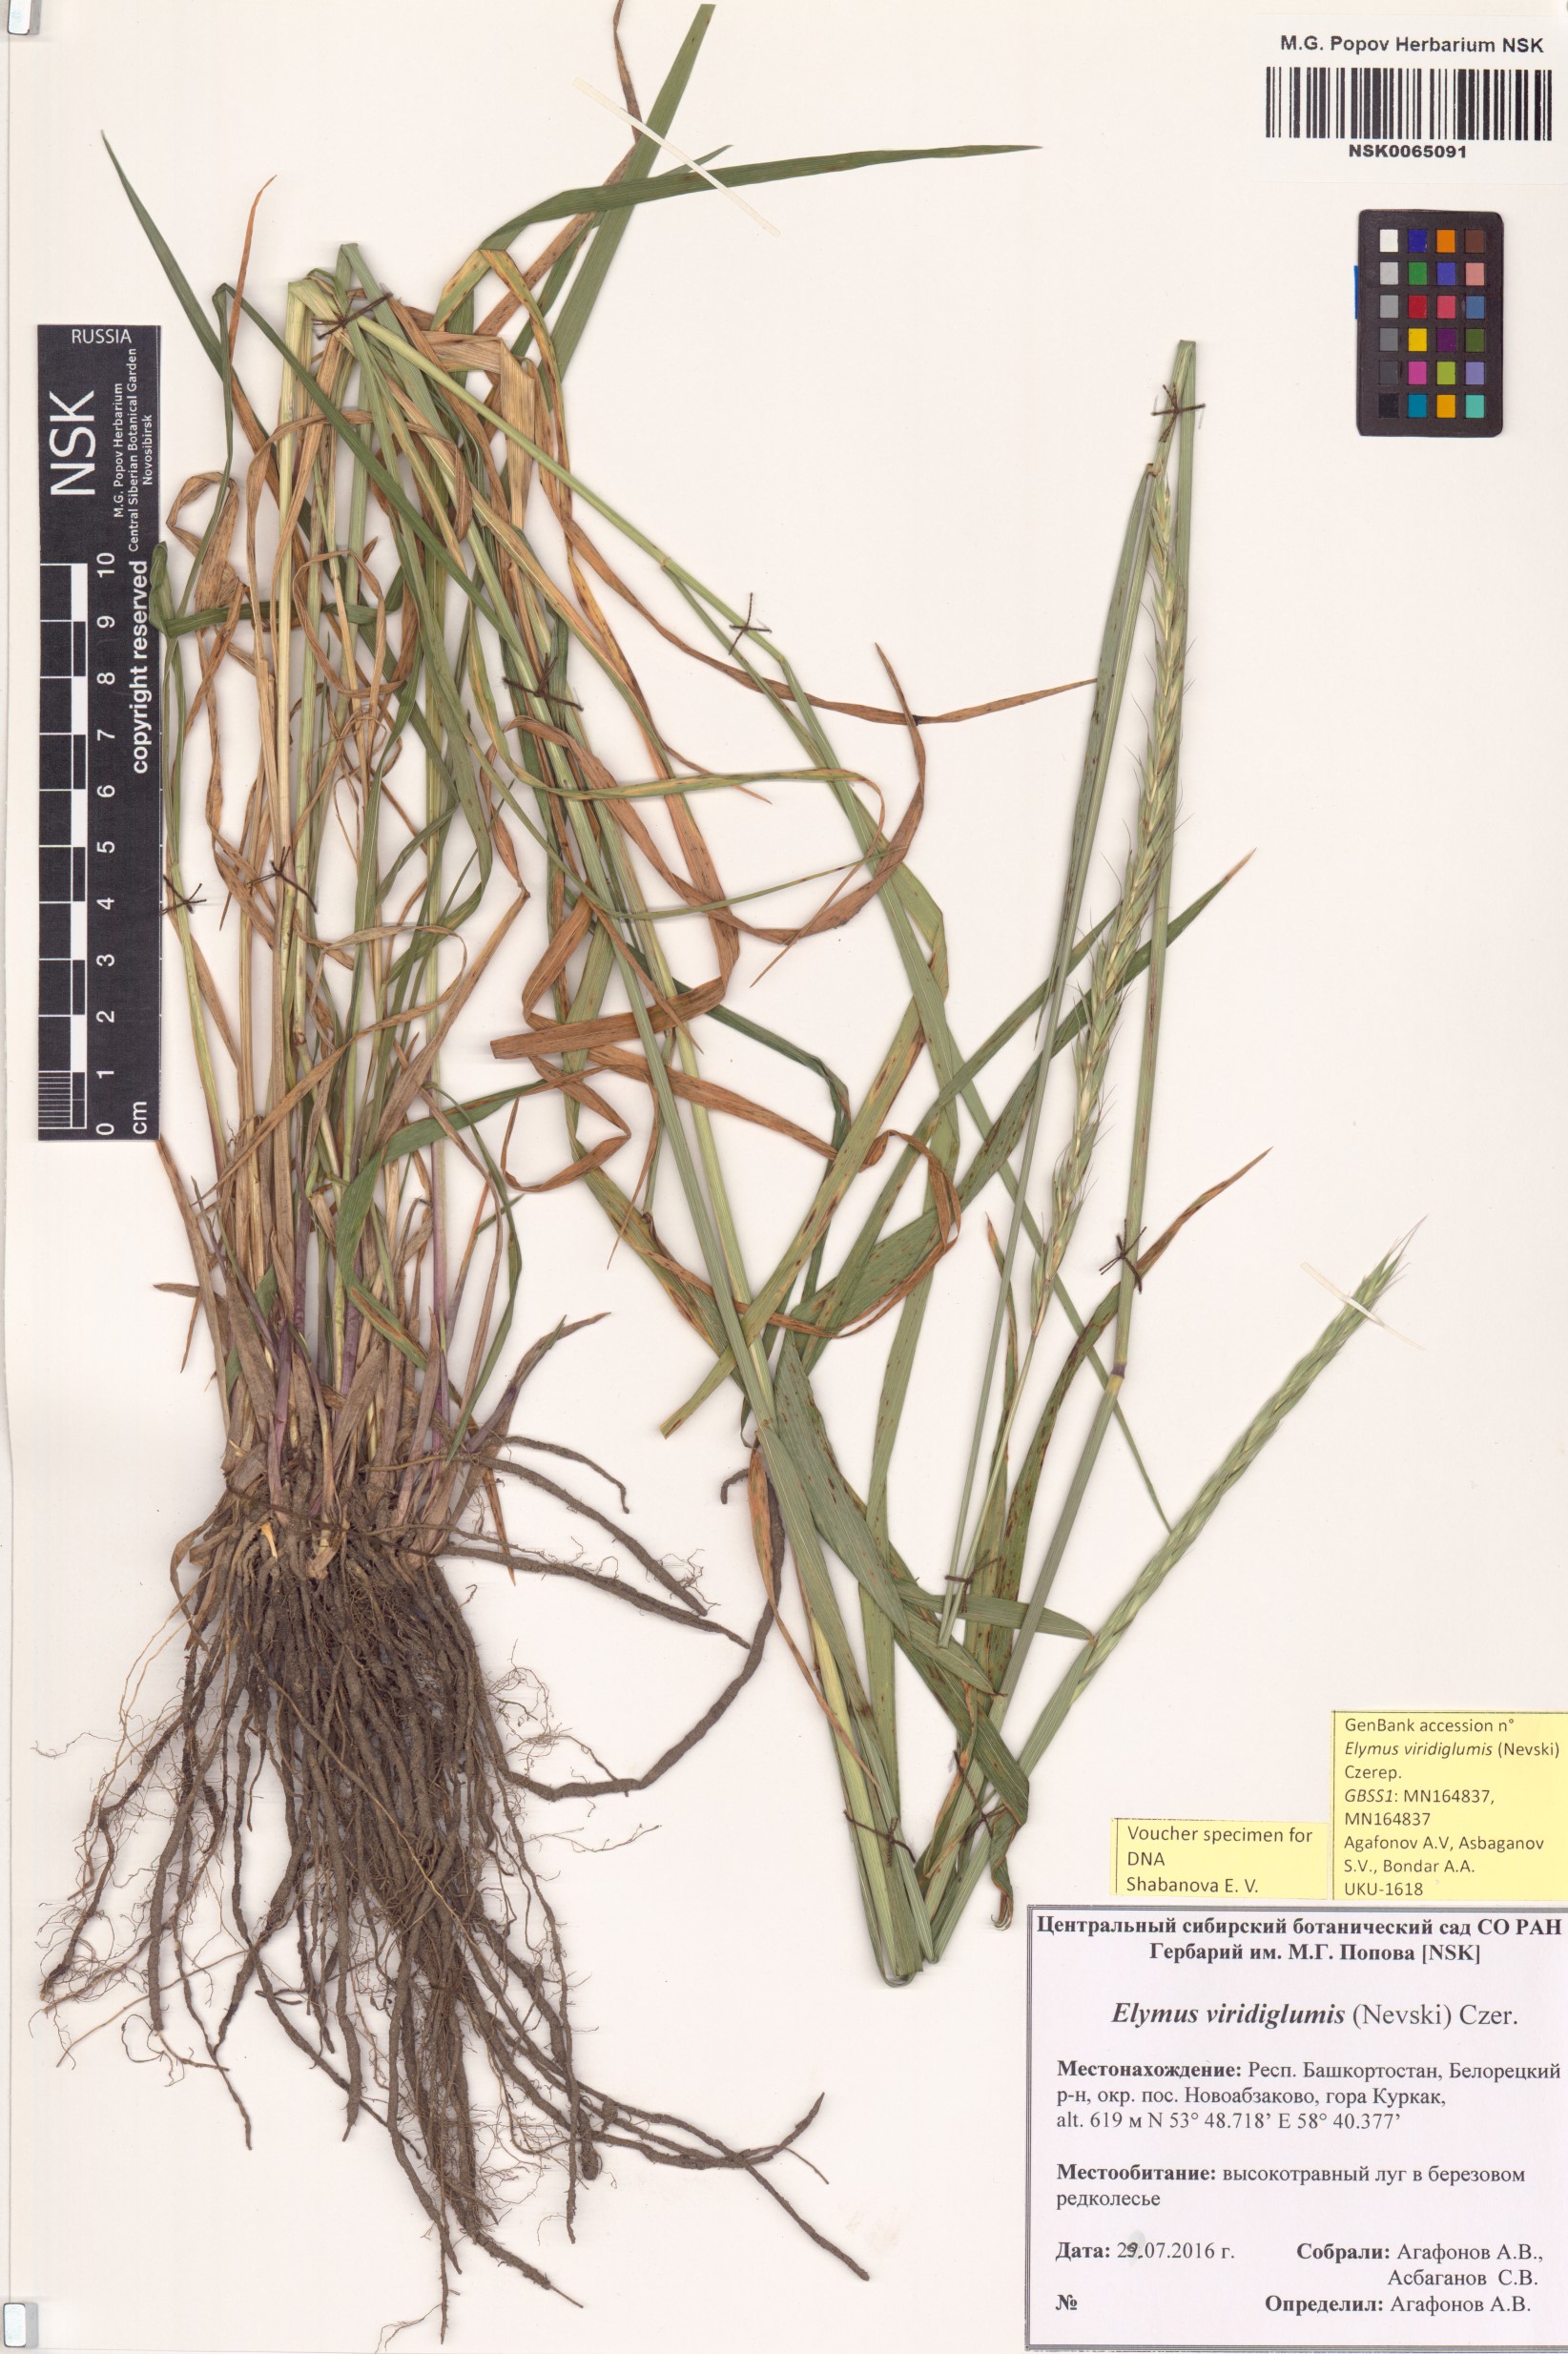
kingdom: Plantae
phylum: Tracheophyta
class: Liliopsida
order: Poales
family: Poaceae
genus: Elymus
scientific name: Elymus uralensis
